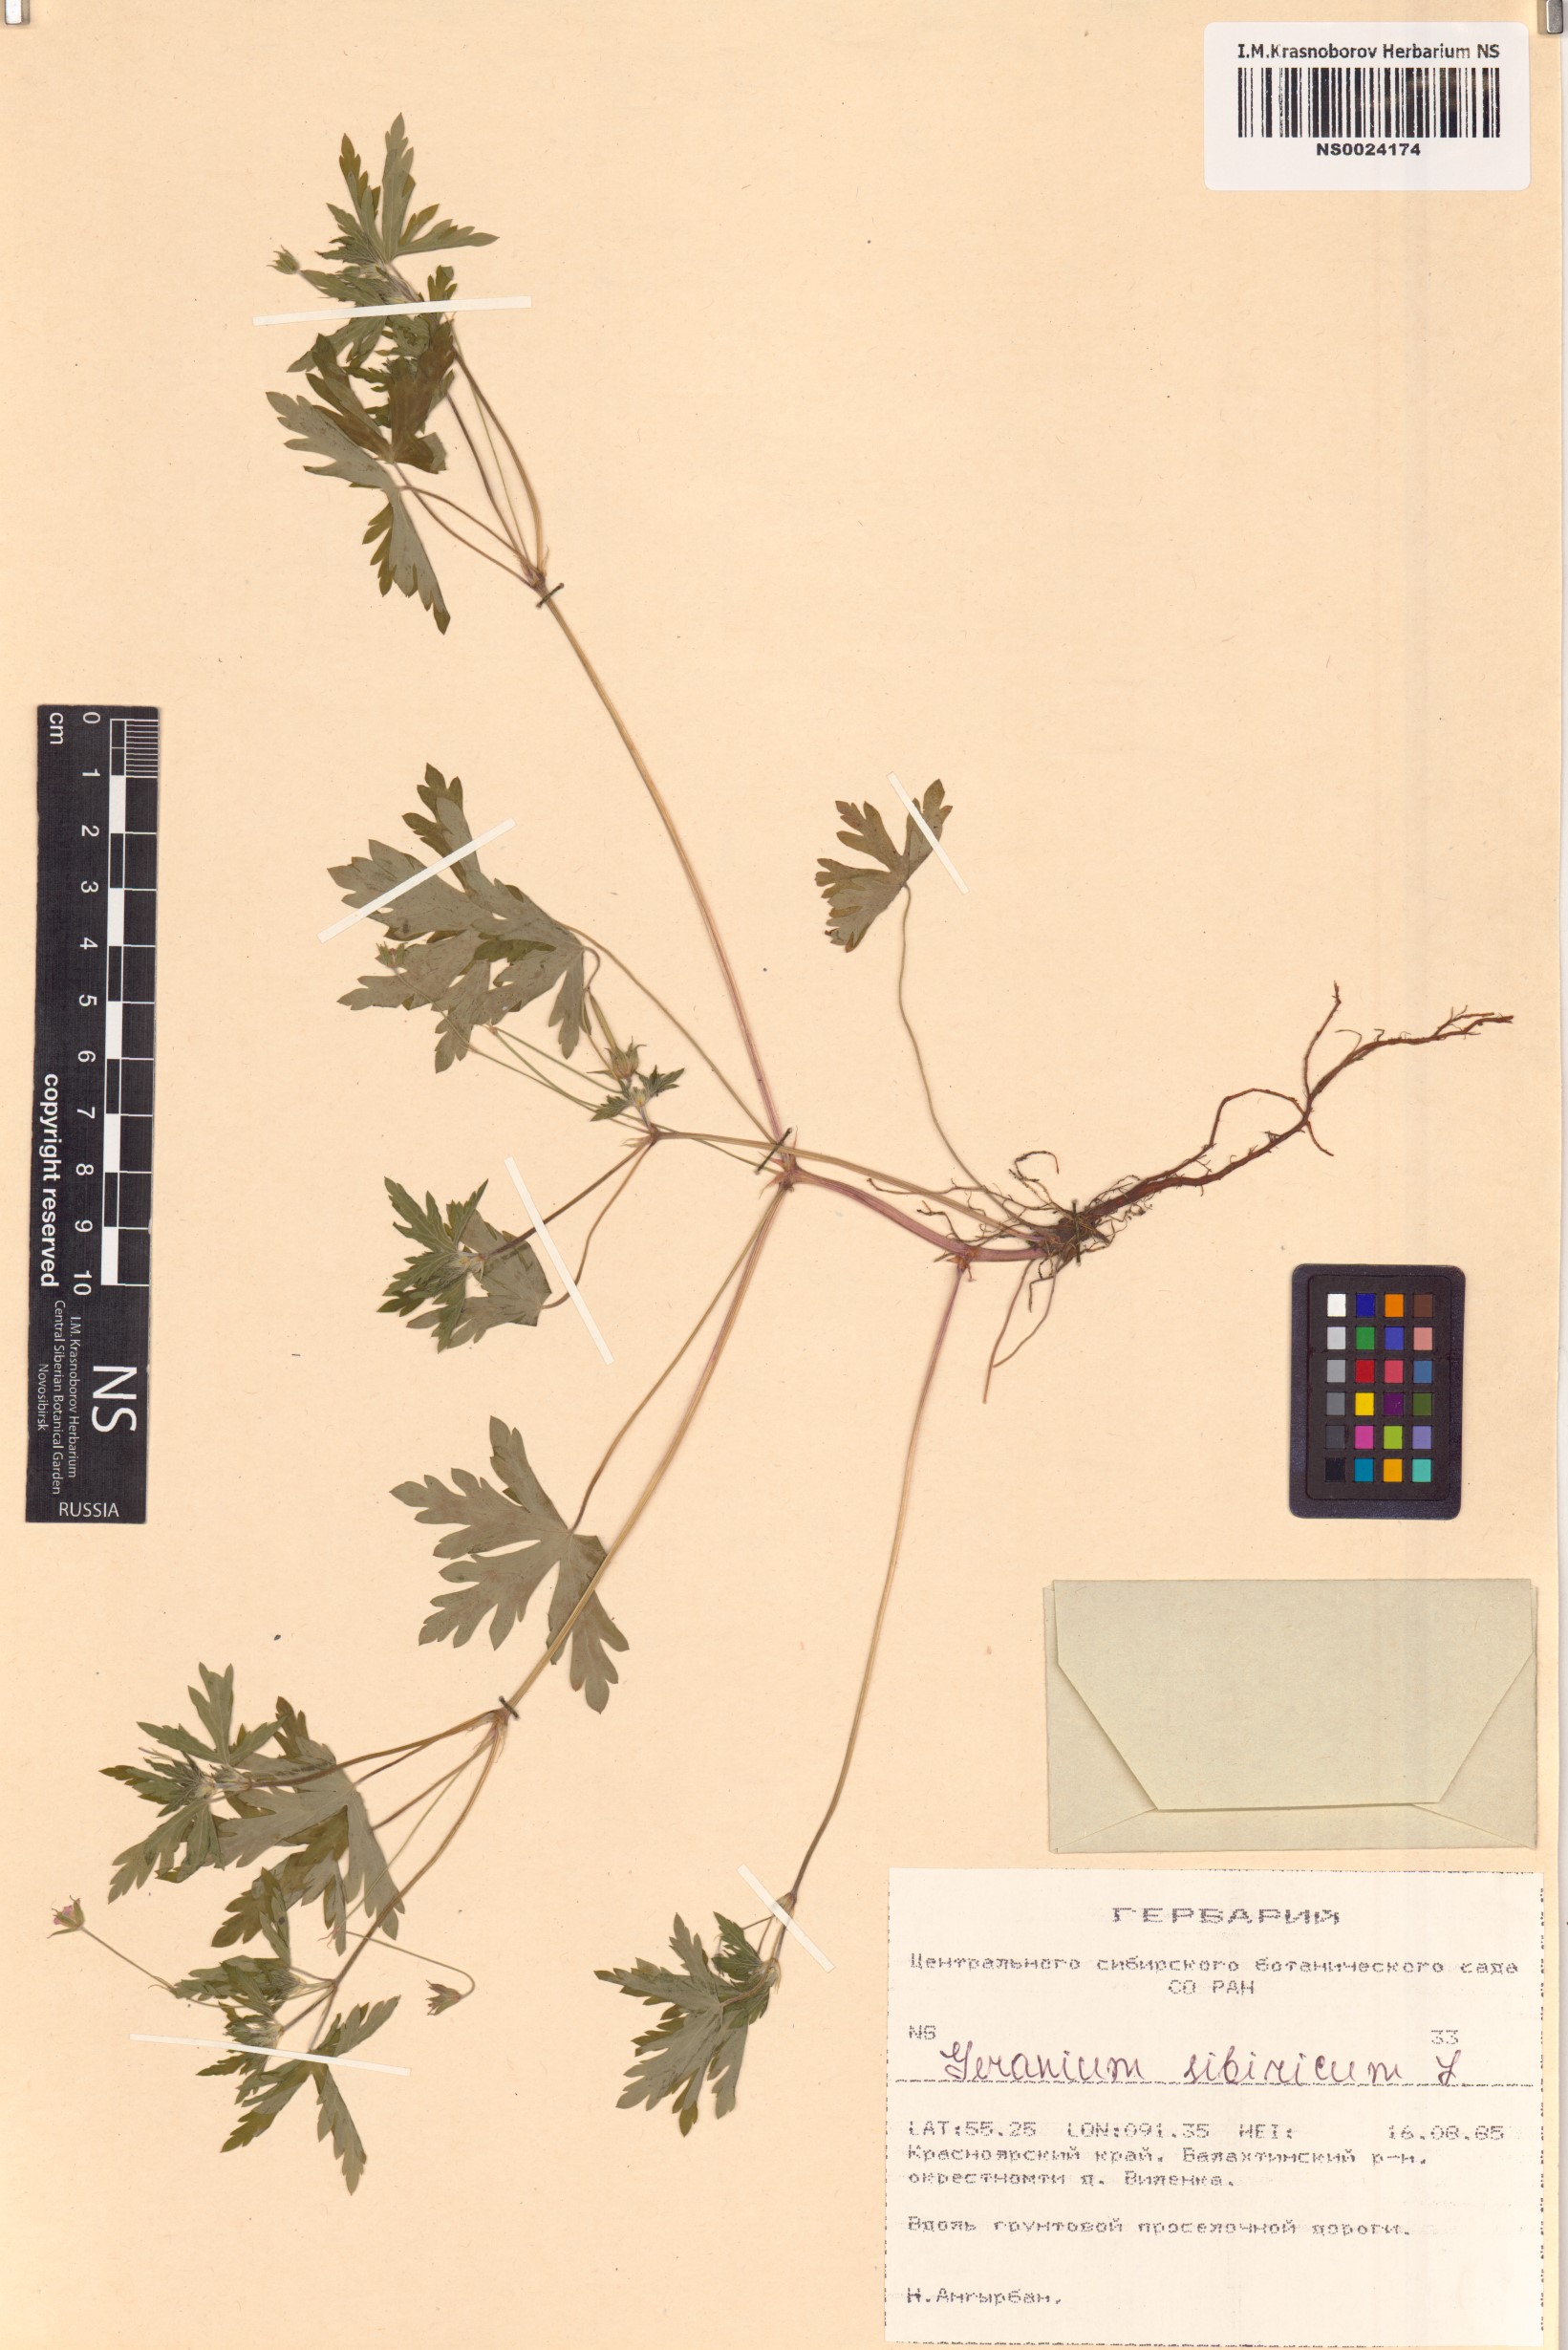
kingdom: Plantae
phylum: Tracheophyta
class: Magnoliopsida
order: Geraniales
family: Geraniaceae
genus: Geranium
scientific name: Geranium sibiricum
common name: Siberian crane's-bill
